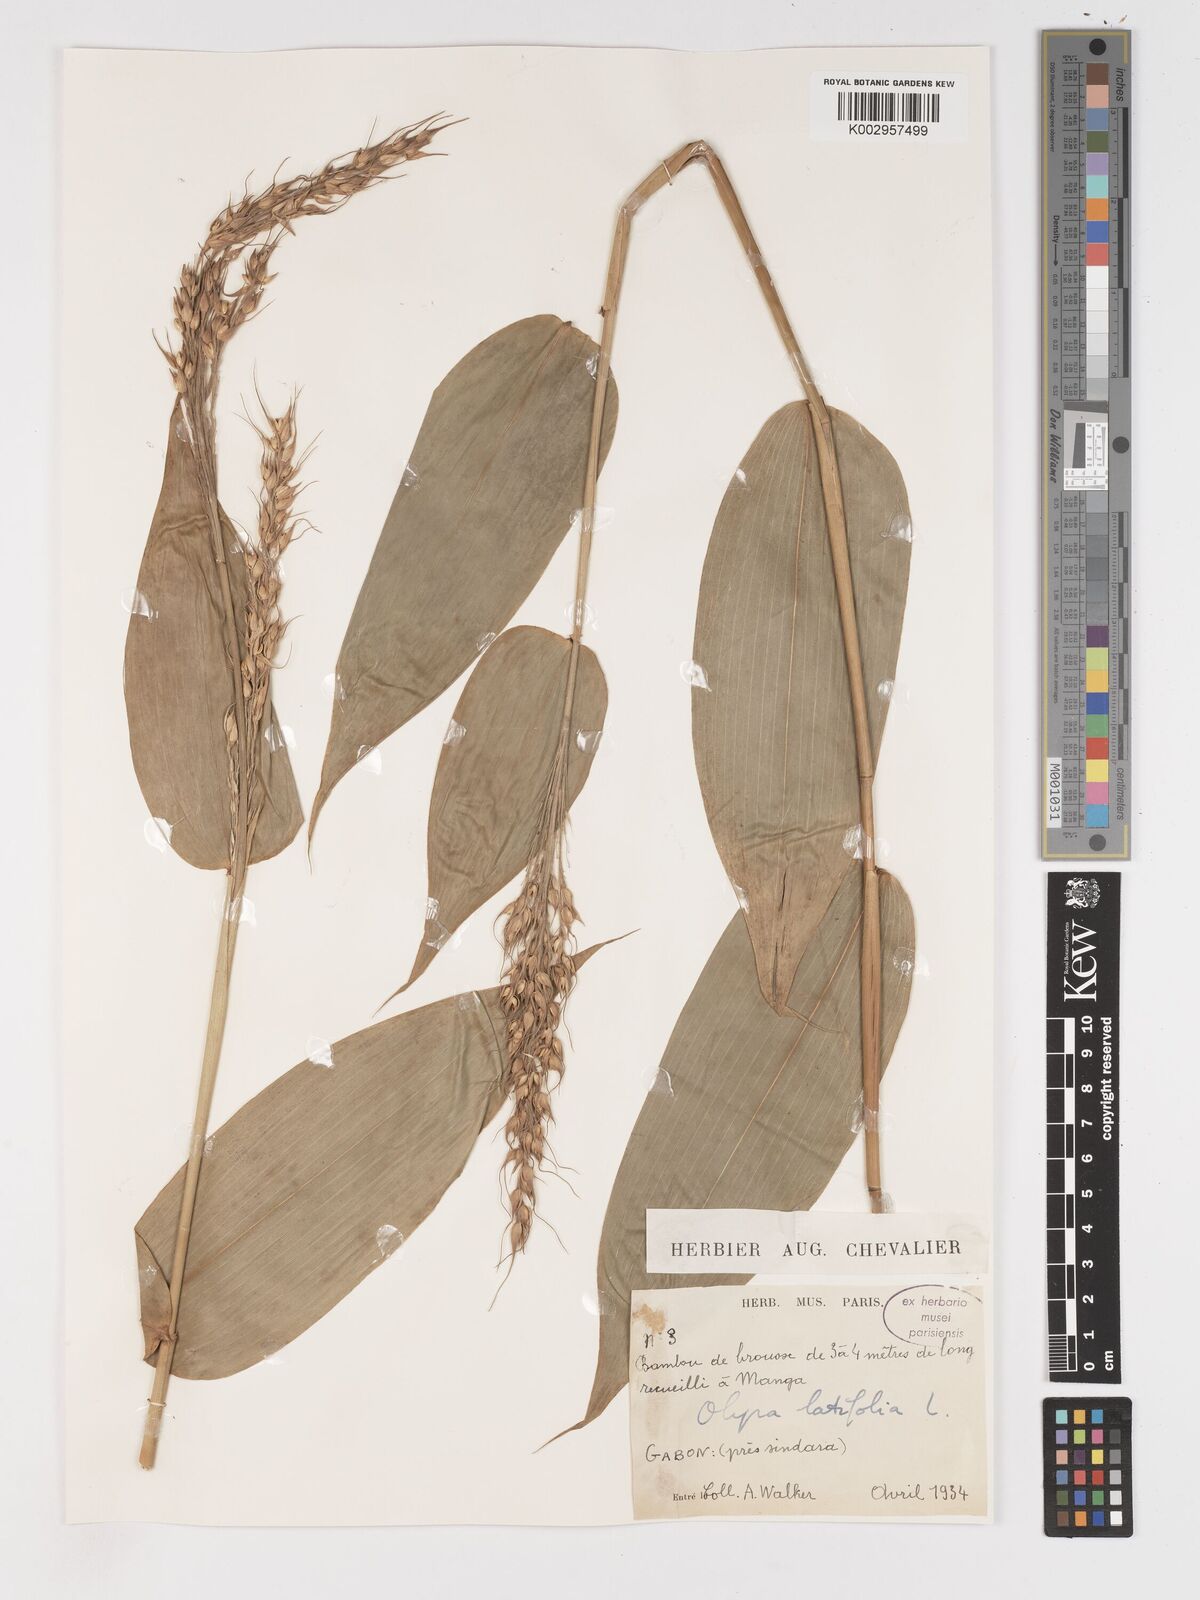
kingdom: Plantae
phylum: Tracheophyta
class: Liliopsida
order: Poales
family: Poaceae
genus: Olyra
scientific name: Olyra latifolia
